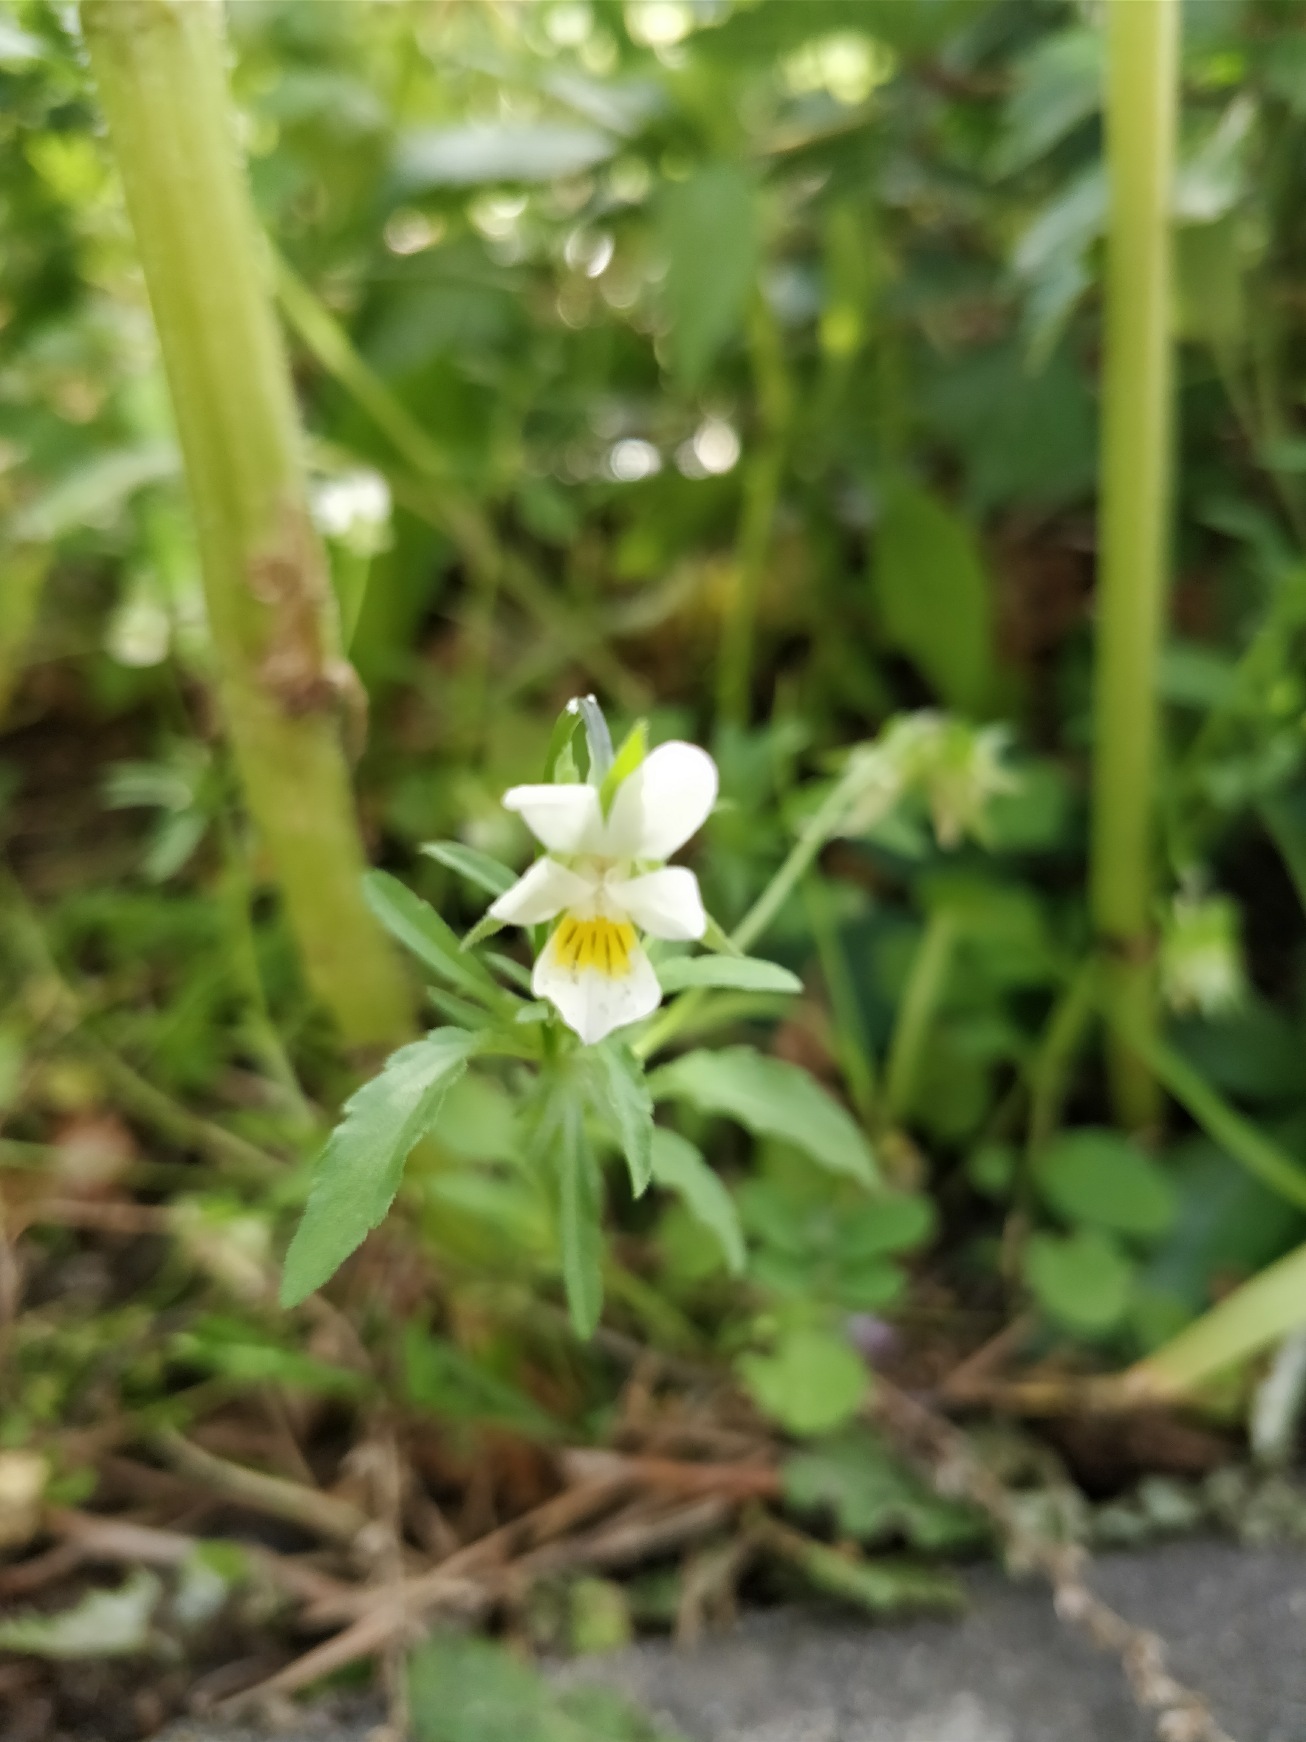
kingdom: Plantae
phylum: Tracheophyta
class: Magnoliopsida
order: Malpighiales
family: Violaceae
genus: Viola
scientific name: Viola arvensis
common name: Ager-stedmoderblomst
